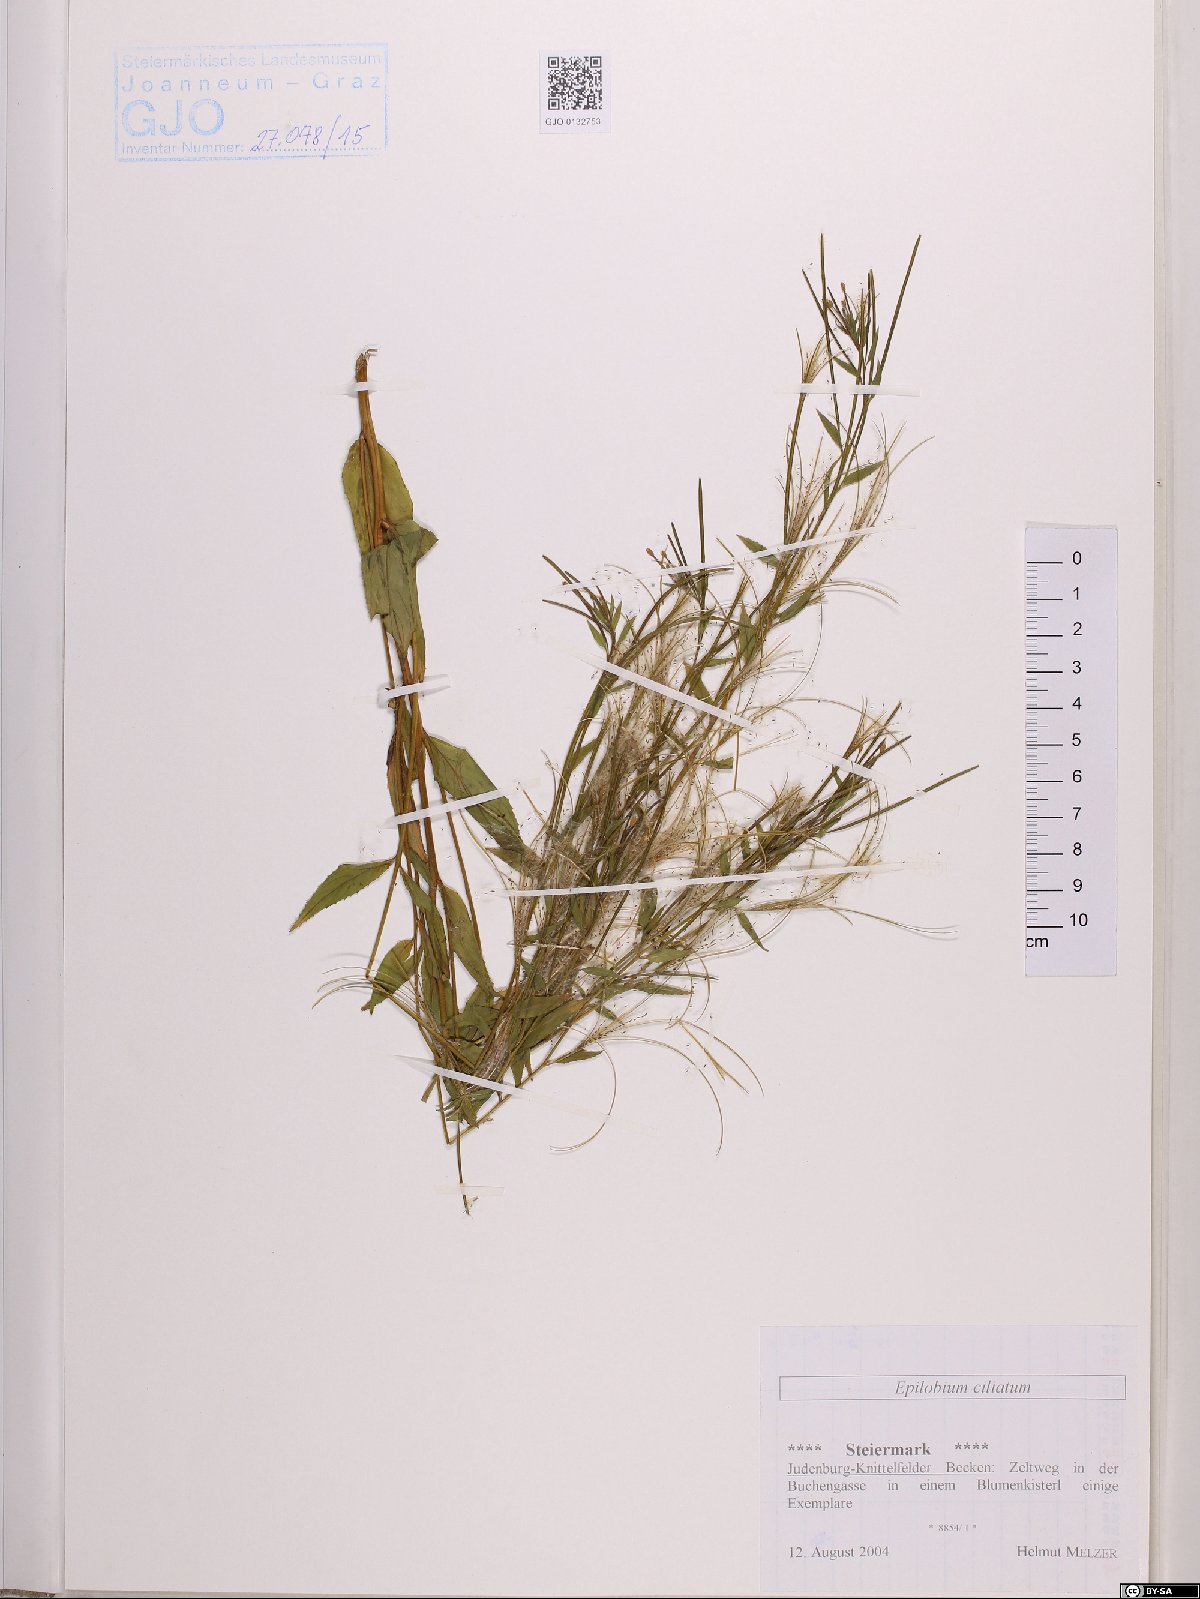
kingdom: Plantae
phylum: Tracheophyta
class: Magnoliopsida
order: Myrtales
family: Onagraceae
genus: Epilobium
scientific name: Epilobium ciliatum
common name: American willowherb
